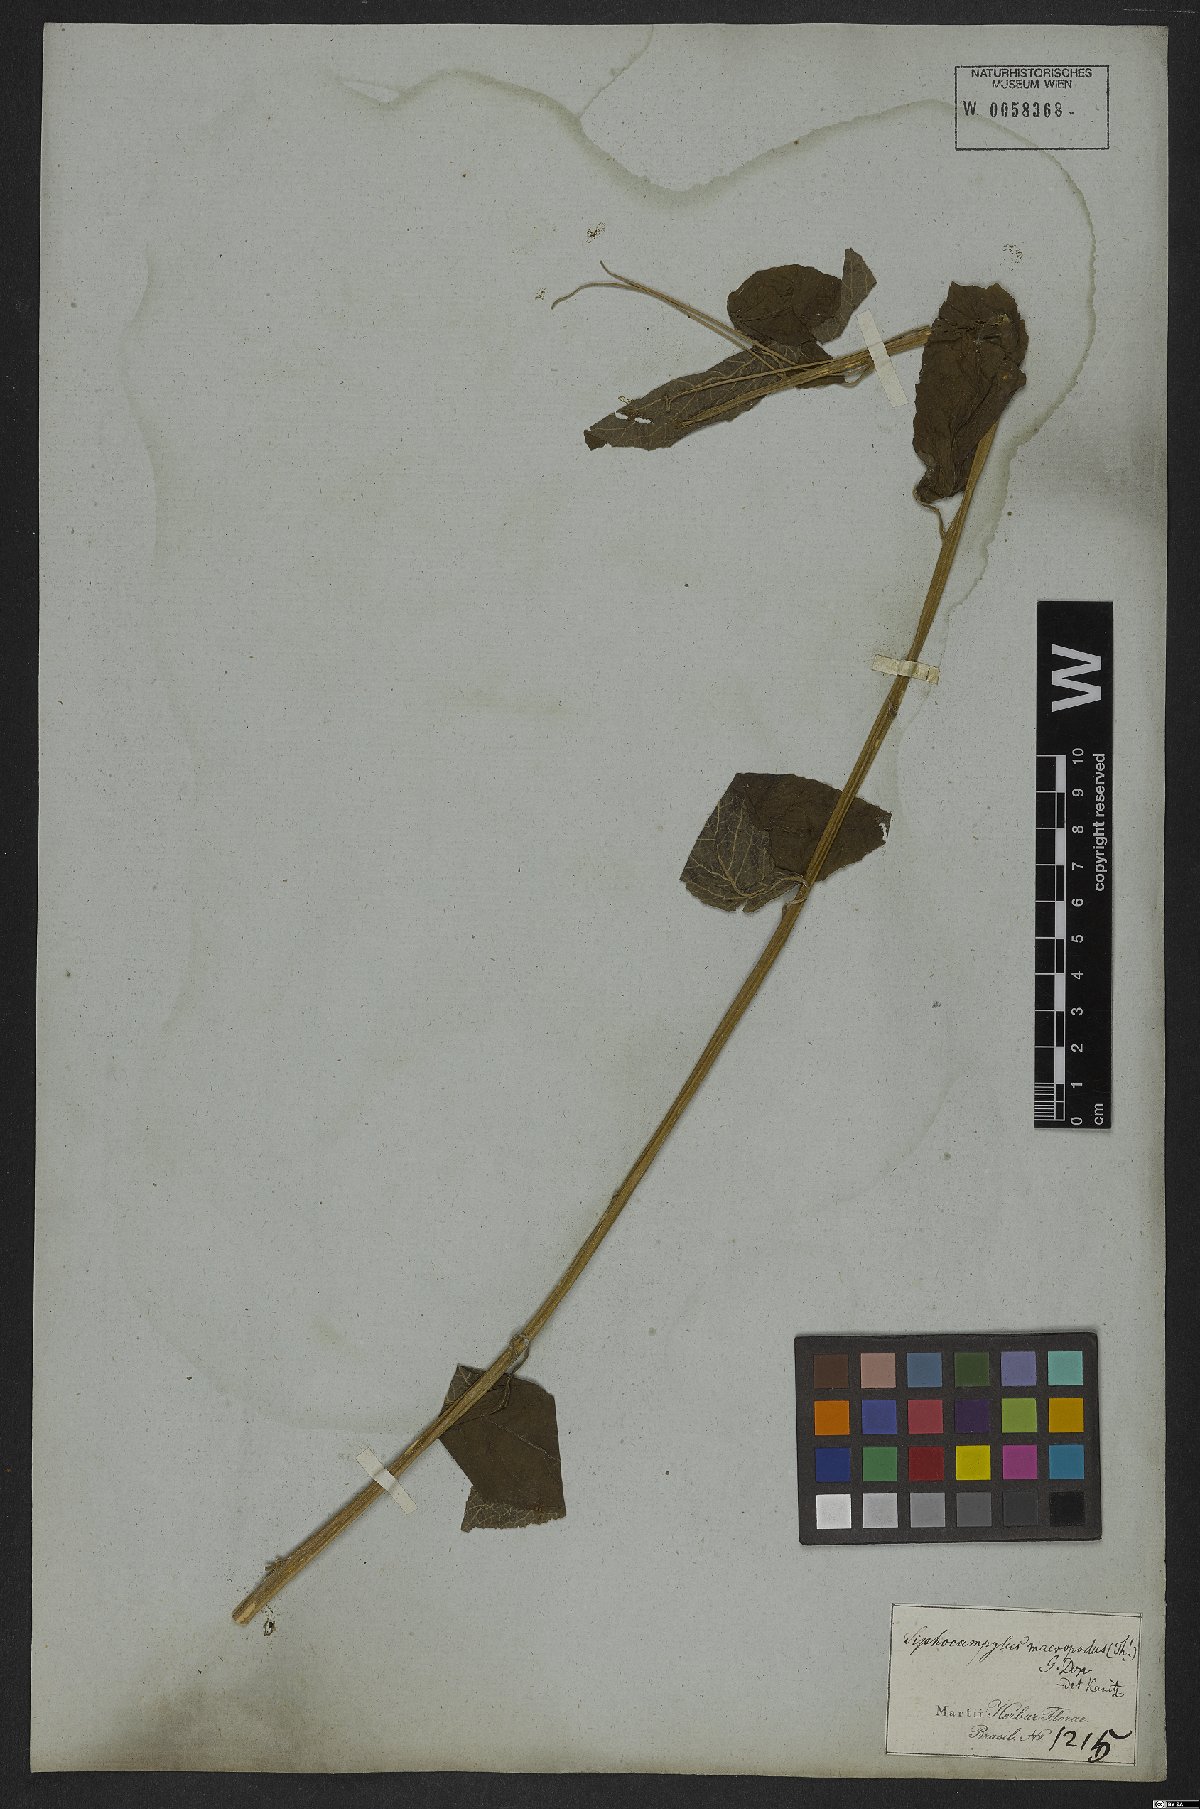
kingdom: Plantae
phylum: Tracheophyta
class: Magnoliopsida
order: Asterales
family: Campanulaceae
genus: Siphocampylus
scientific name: Siphocampylus macropodus
